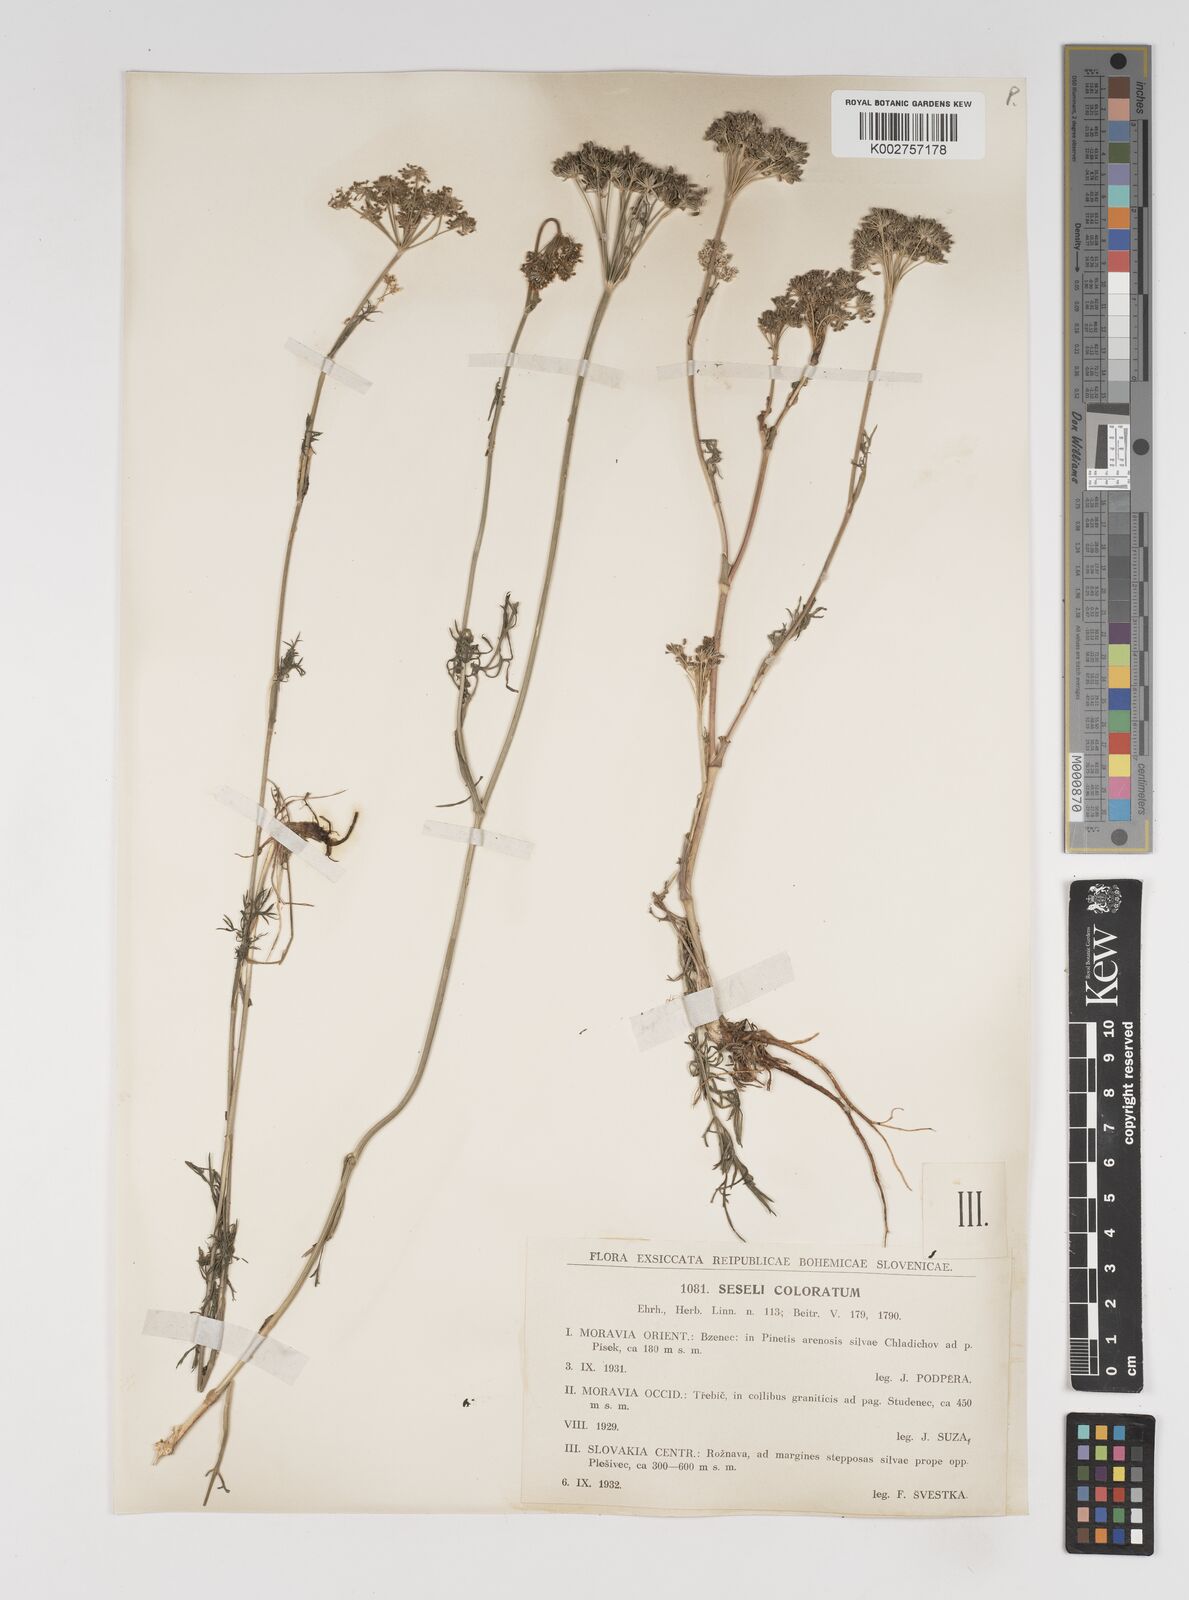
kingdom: Plantae
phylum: Tracheophyta
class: Magnoliopsida
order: Apiales
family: Apiaceae
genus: Seseli
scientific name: Seseli annuum
